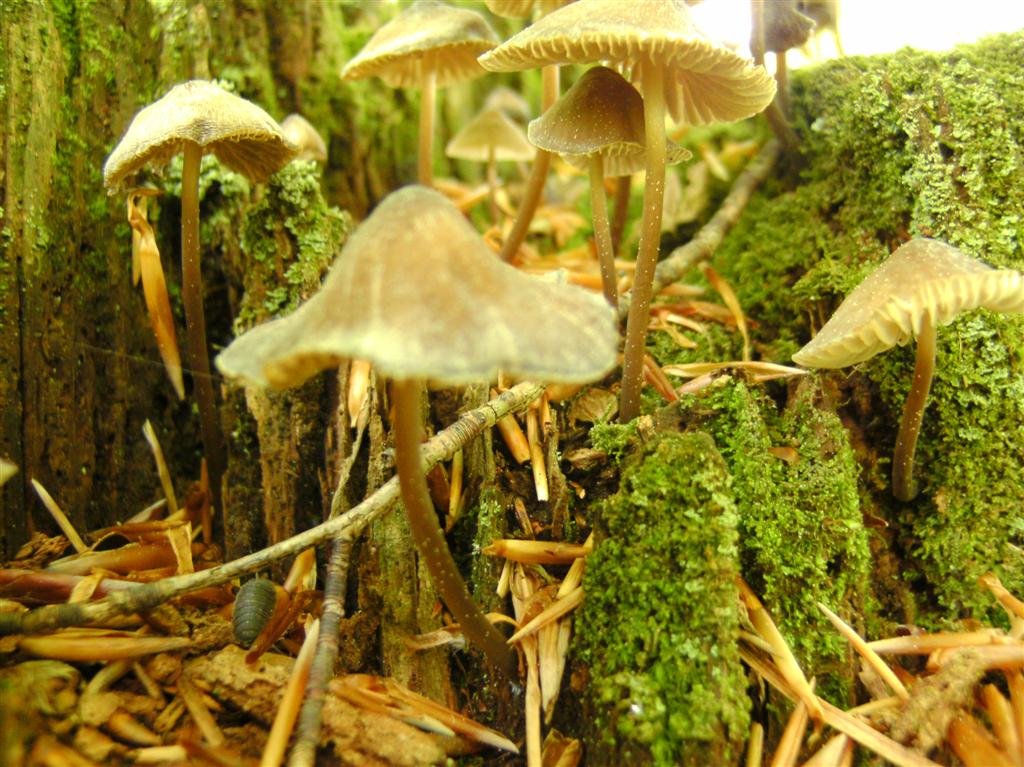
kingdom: Fungi
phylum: Basidiomycota
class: Agaricomycetes
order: Agaricales
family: Mycenaceae
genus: Mycena
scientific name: Mycena silvae-nigrae
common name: tidlig huesvamp
